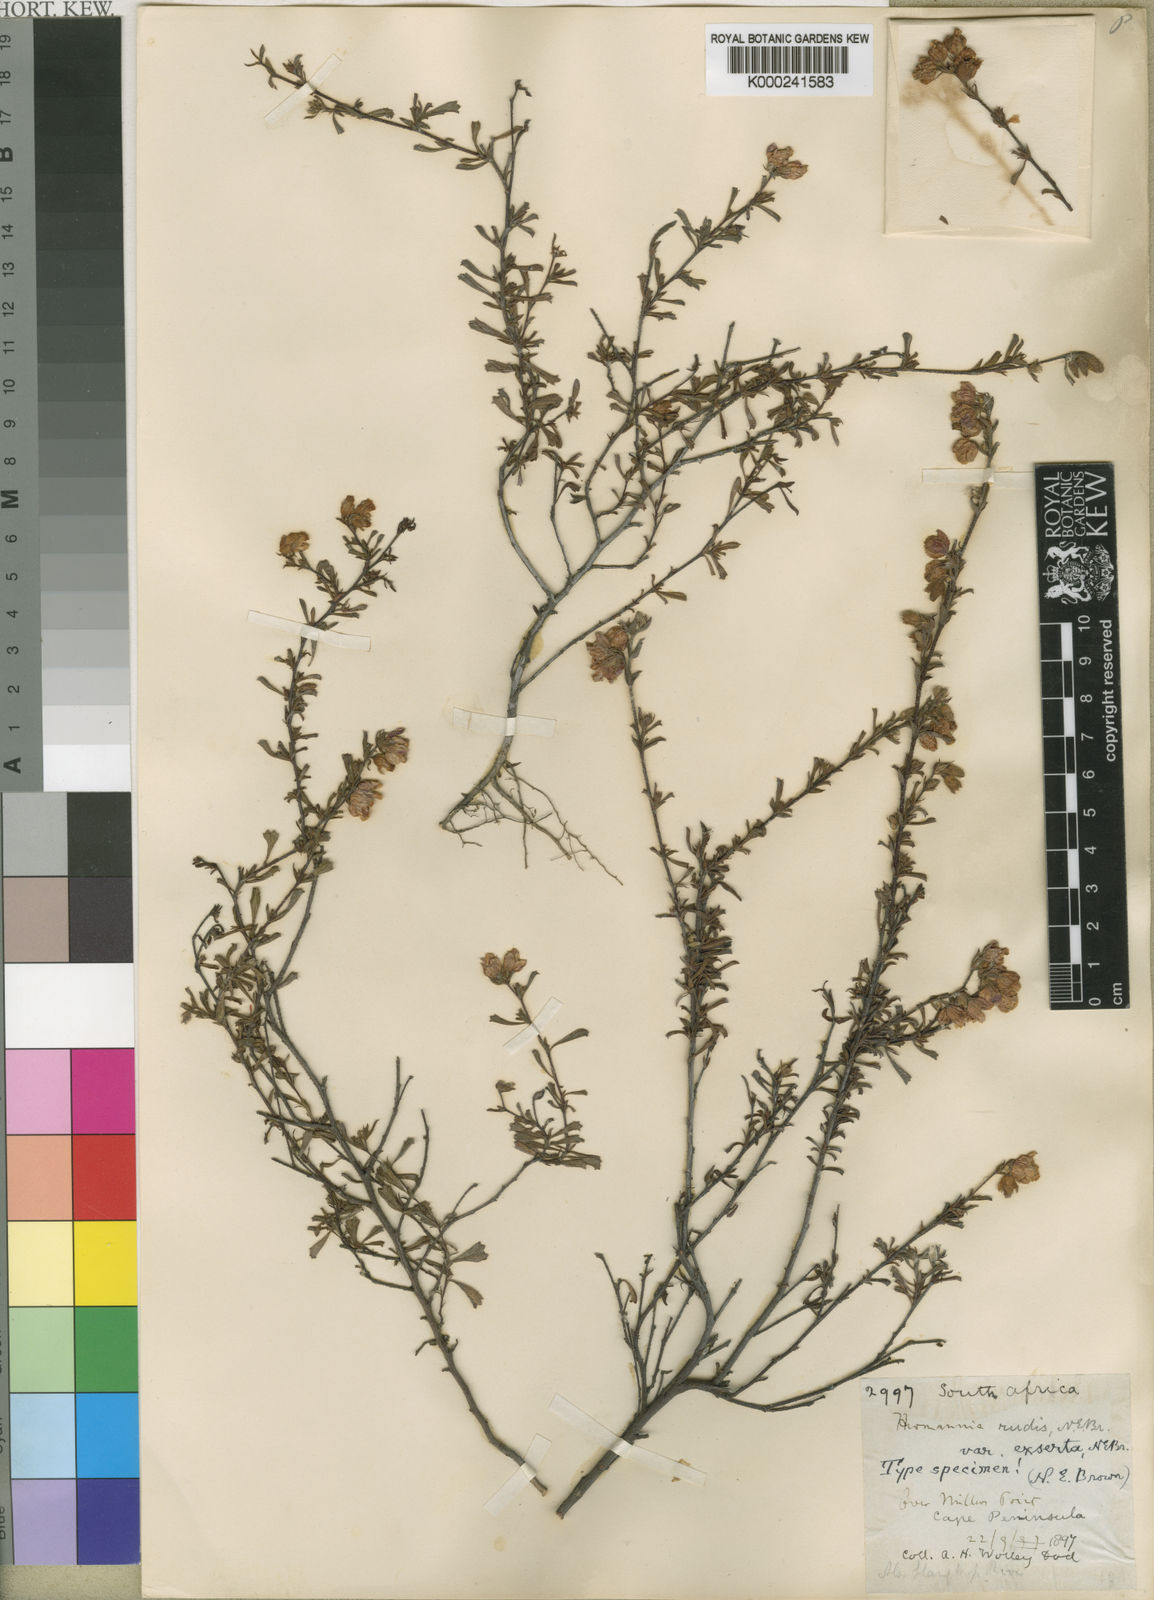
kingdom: Plantae
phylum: Tracheophyta
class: Magnoliopsida
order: Malvales
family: Malvaceae
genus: Hermannia
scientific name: Hermannia rudis
